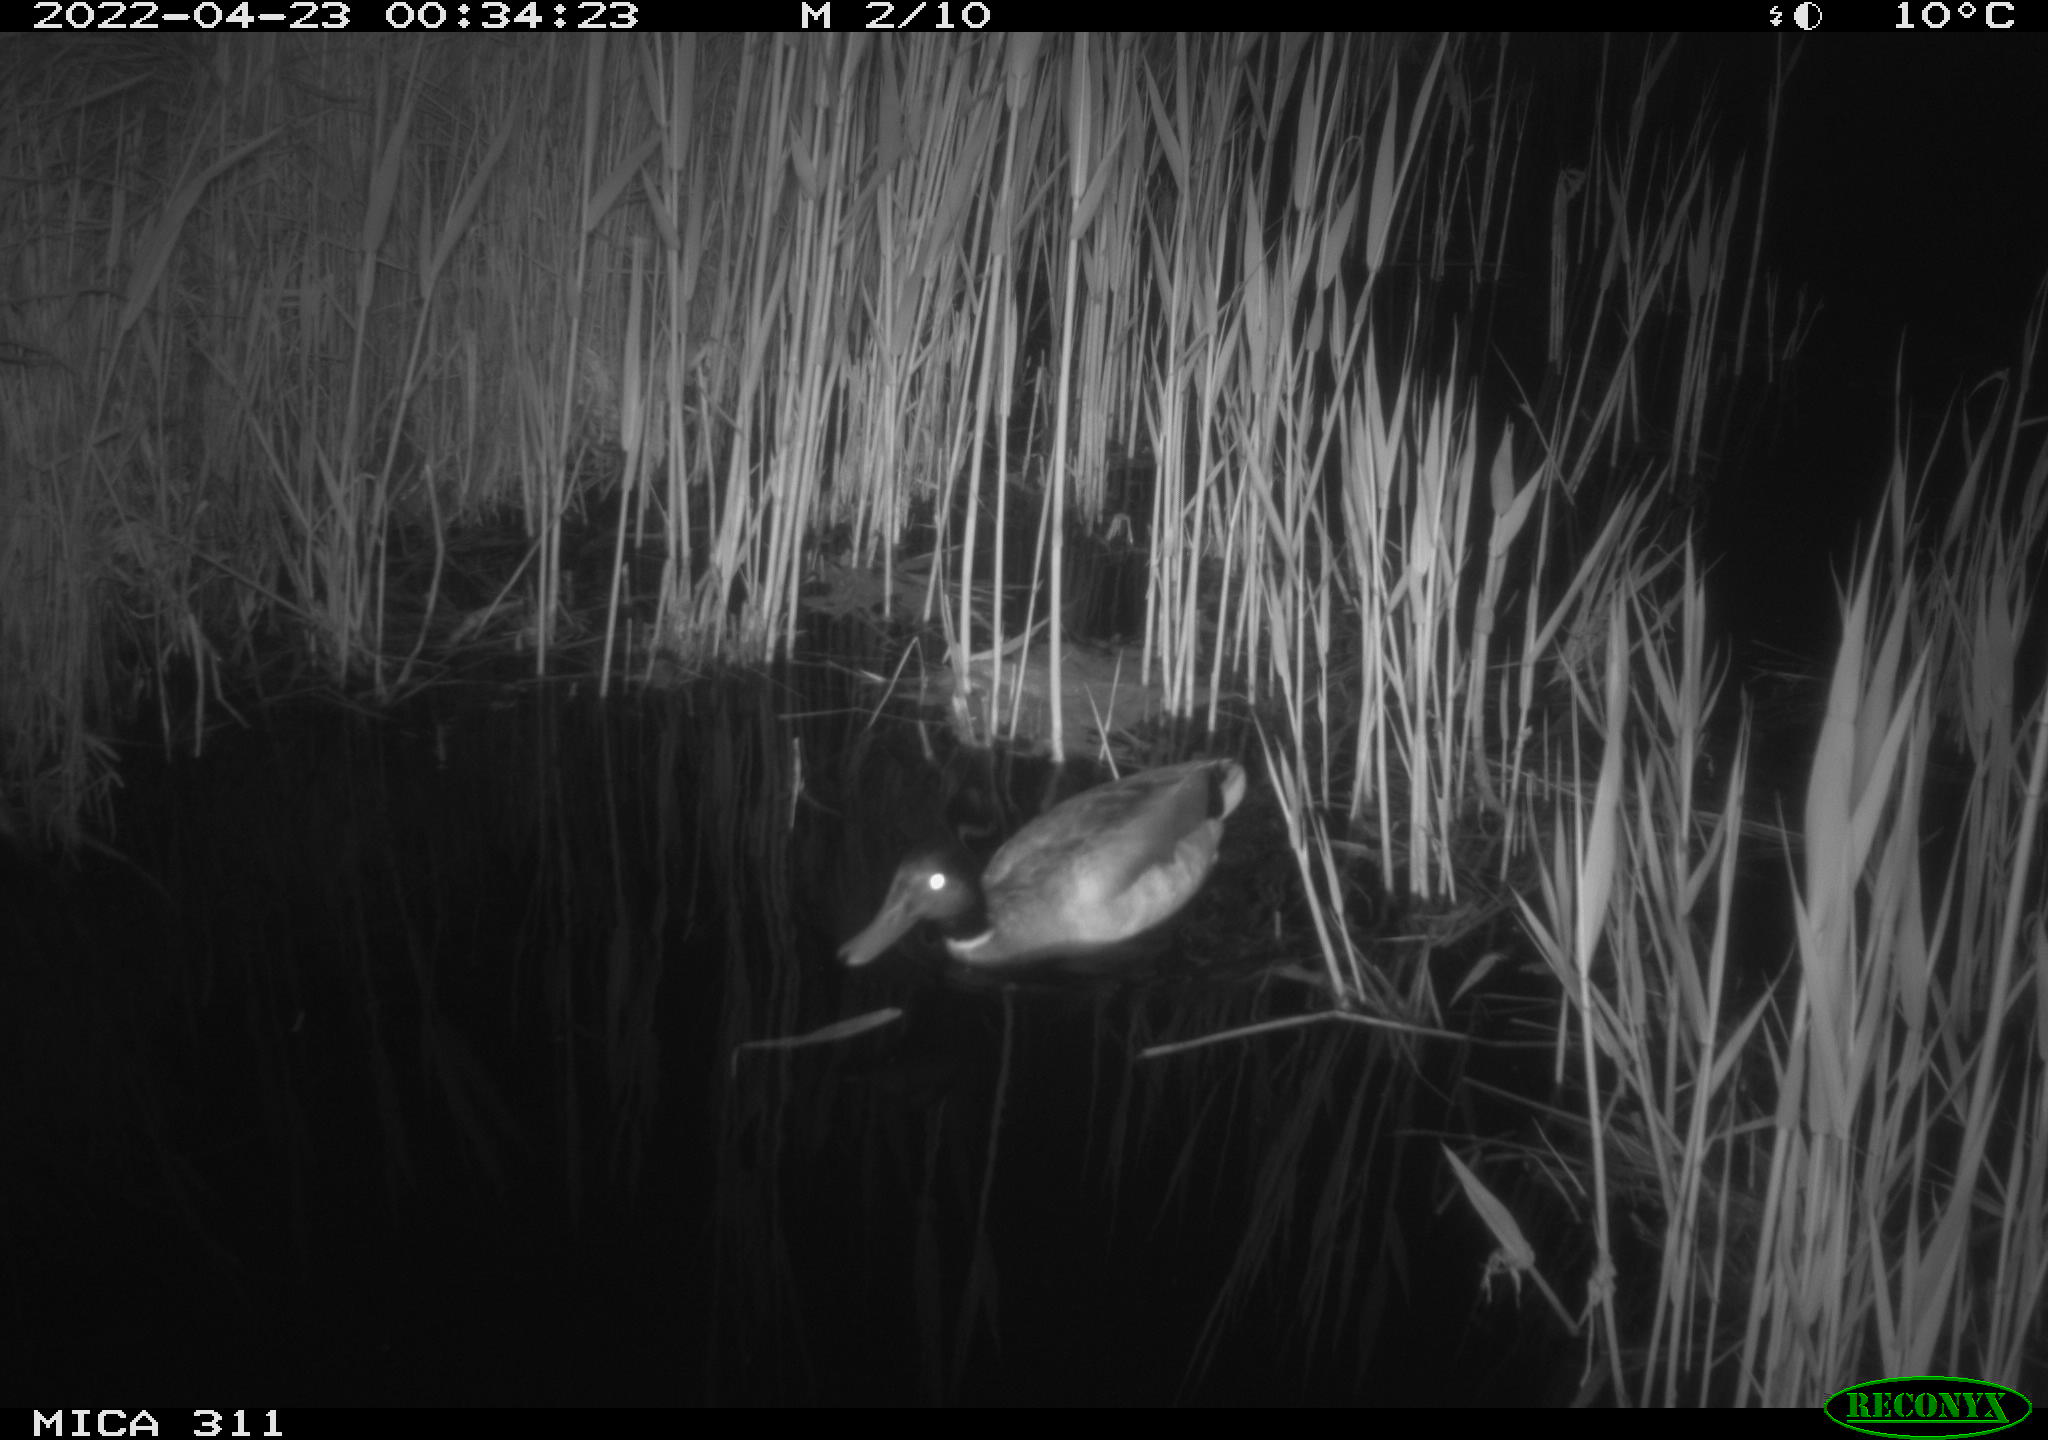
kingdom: Animalia
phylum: Chordata
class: Aves
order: Anseriformes
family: Anatidae
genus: Anas
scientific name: Anas platyrhynchos
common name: Mallard
